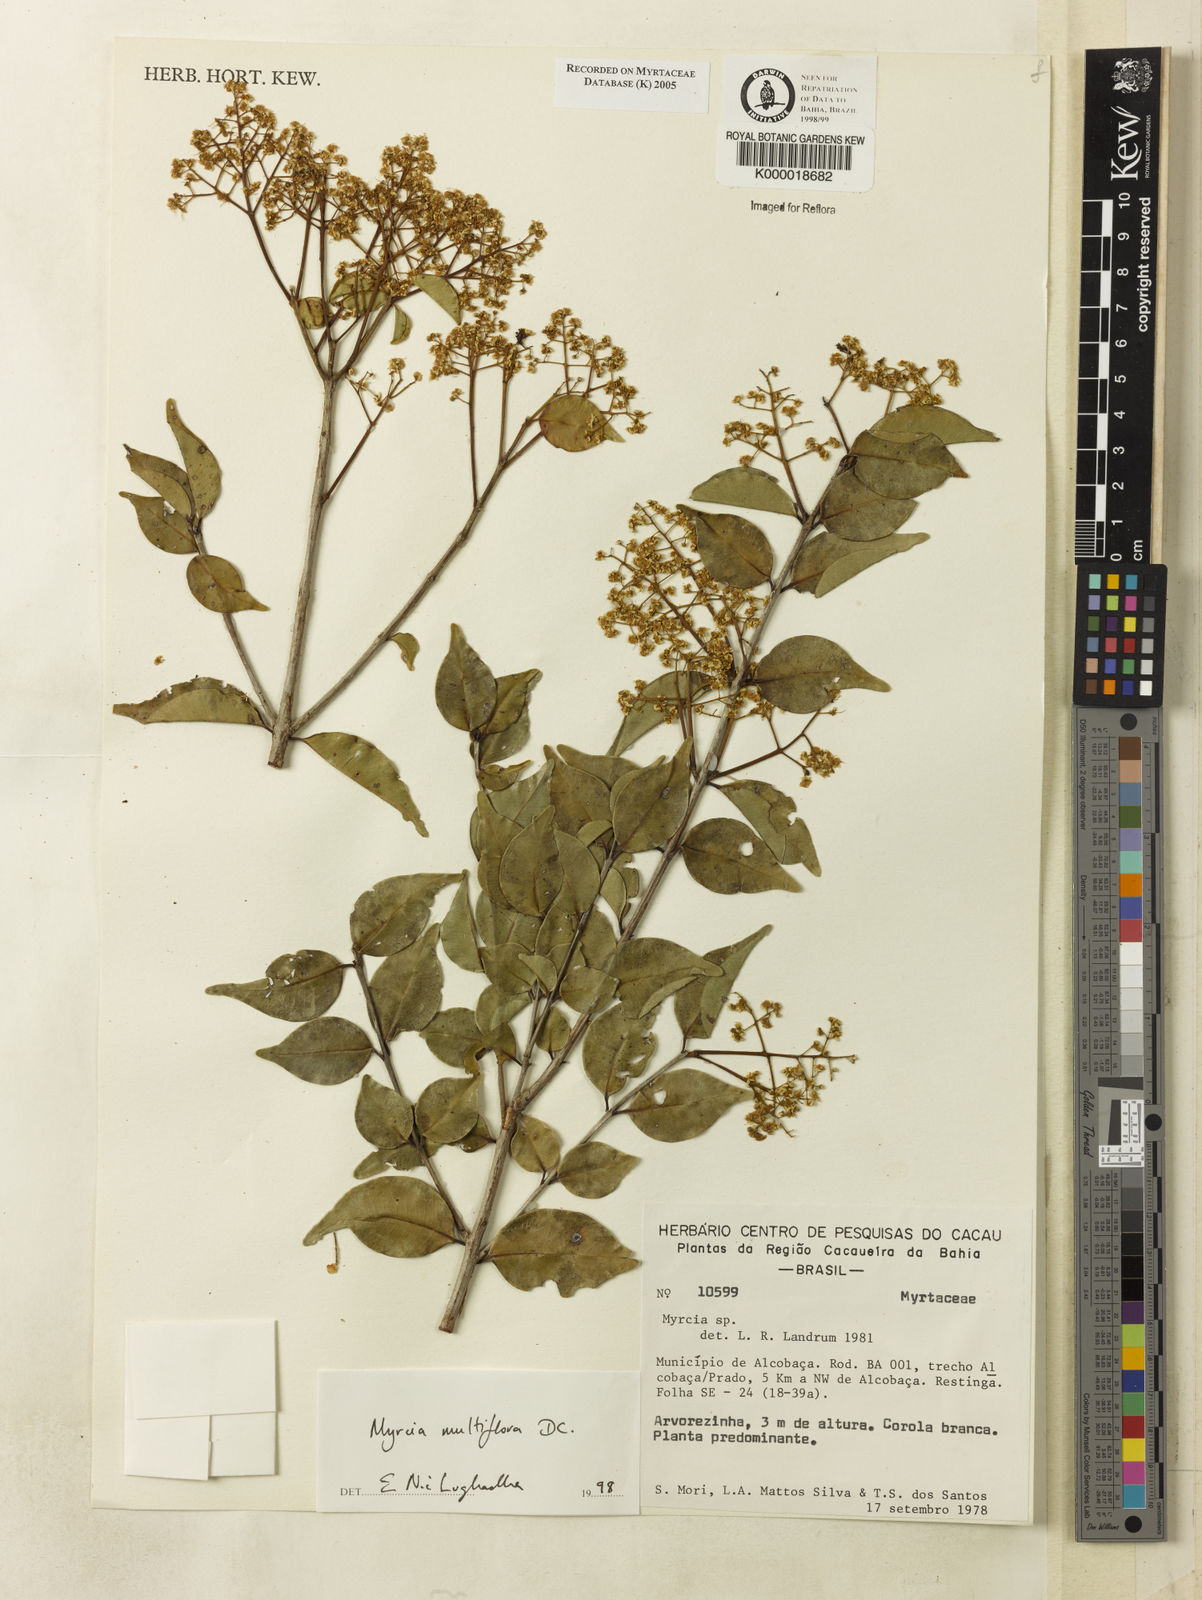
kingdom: Plantae
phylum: Tracheophyta
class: Magnoliopsida
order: Myrtales
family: Myrtaceae
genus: Myrcia
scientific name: Myrcia multiflora
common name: Pedra hume
